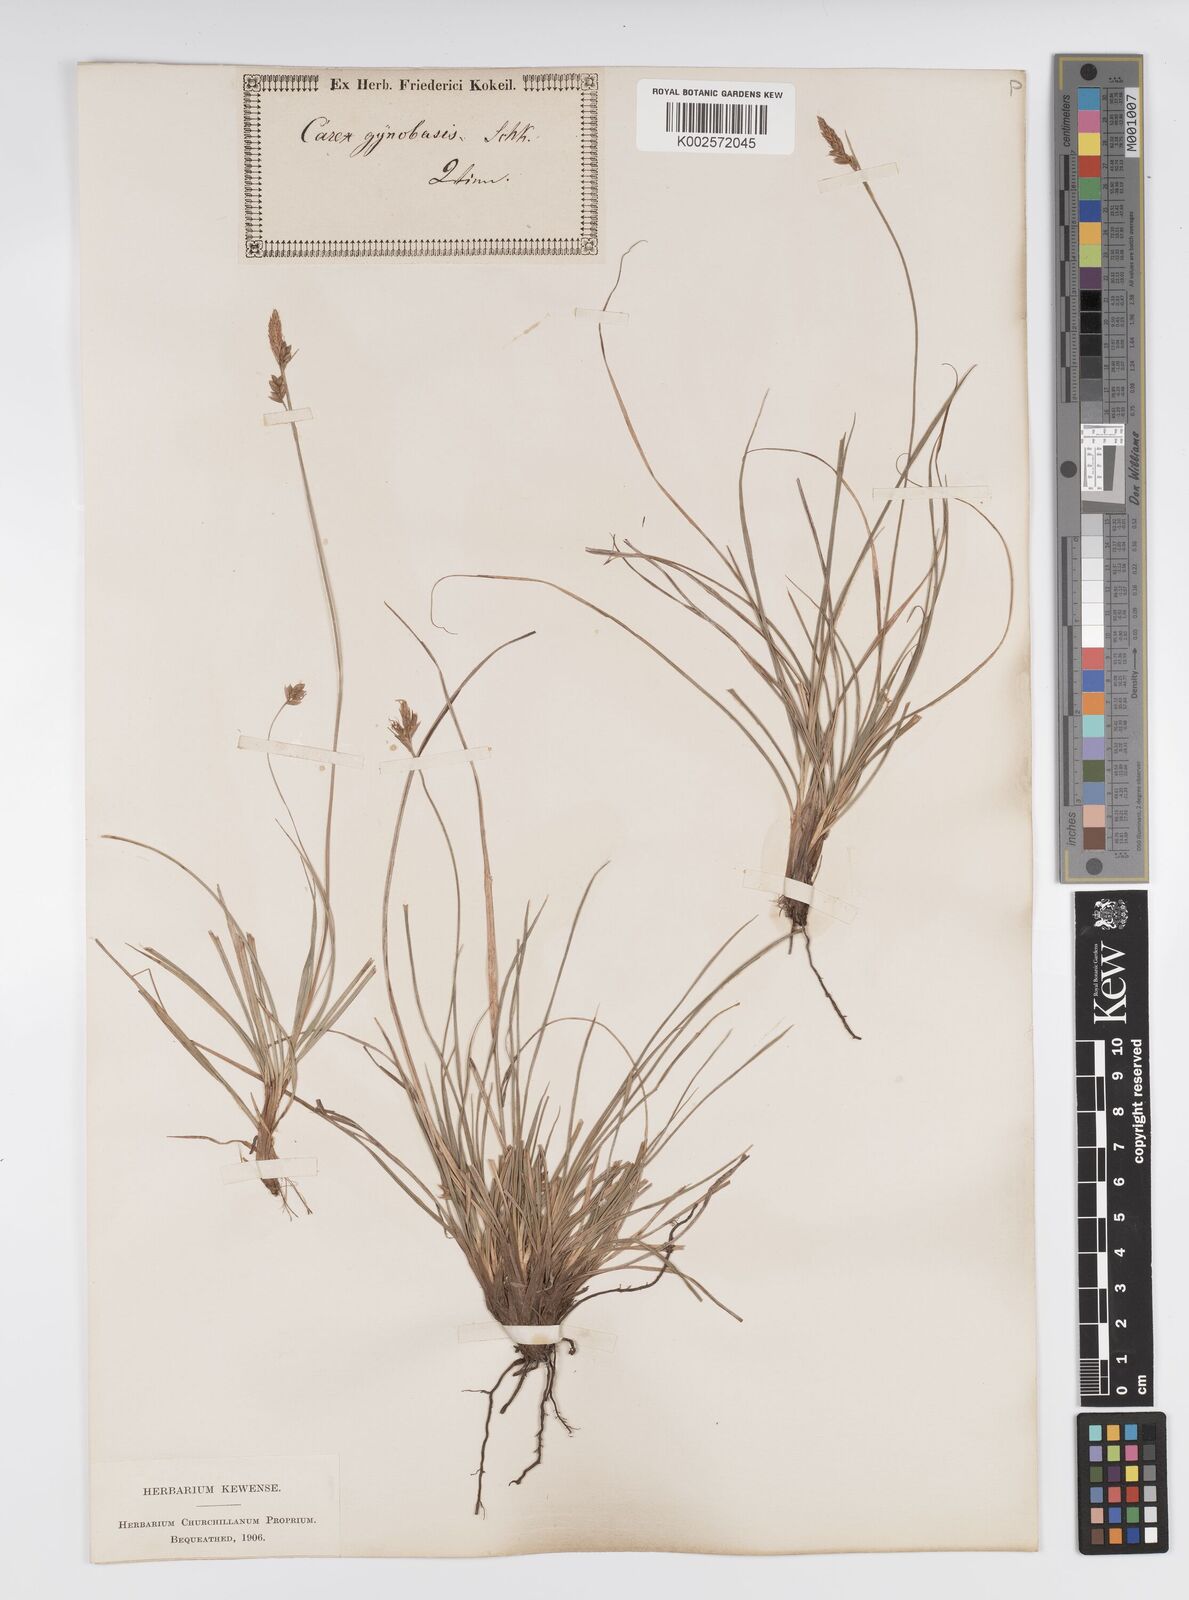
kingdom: Plantae
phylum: Tracheophyta
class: Liliopsida
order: Poales
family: Cyperaceae
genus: Carex
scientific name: Carex halleriana
